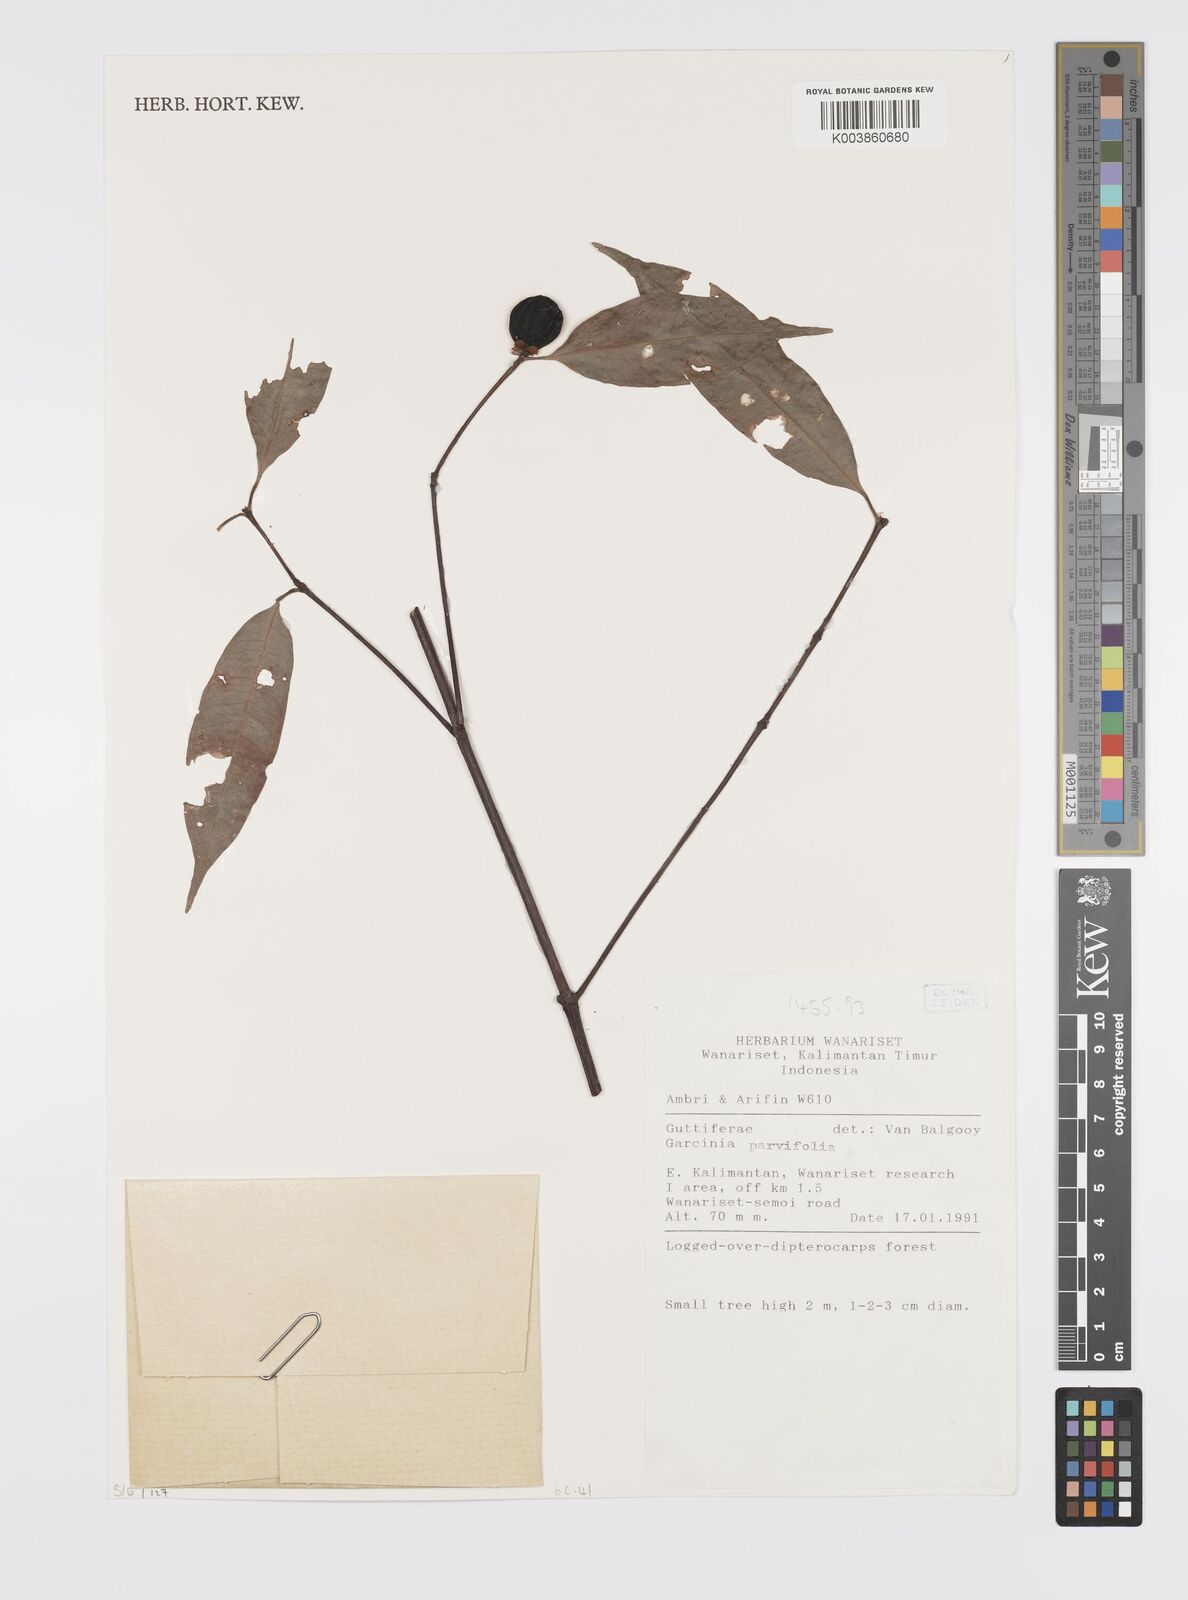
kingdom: Plantae
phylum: Tracheophyta
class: Magnoliopsida
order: Malpighiales
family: Clusiaceae
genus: Garcinia
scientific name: Garcinia parvifolia
